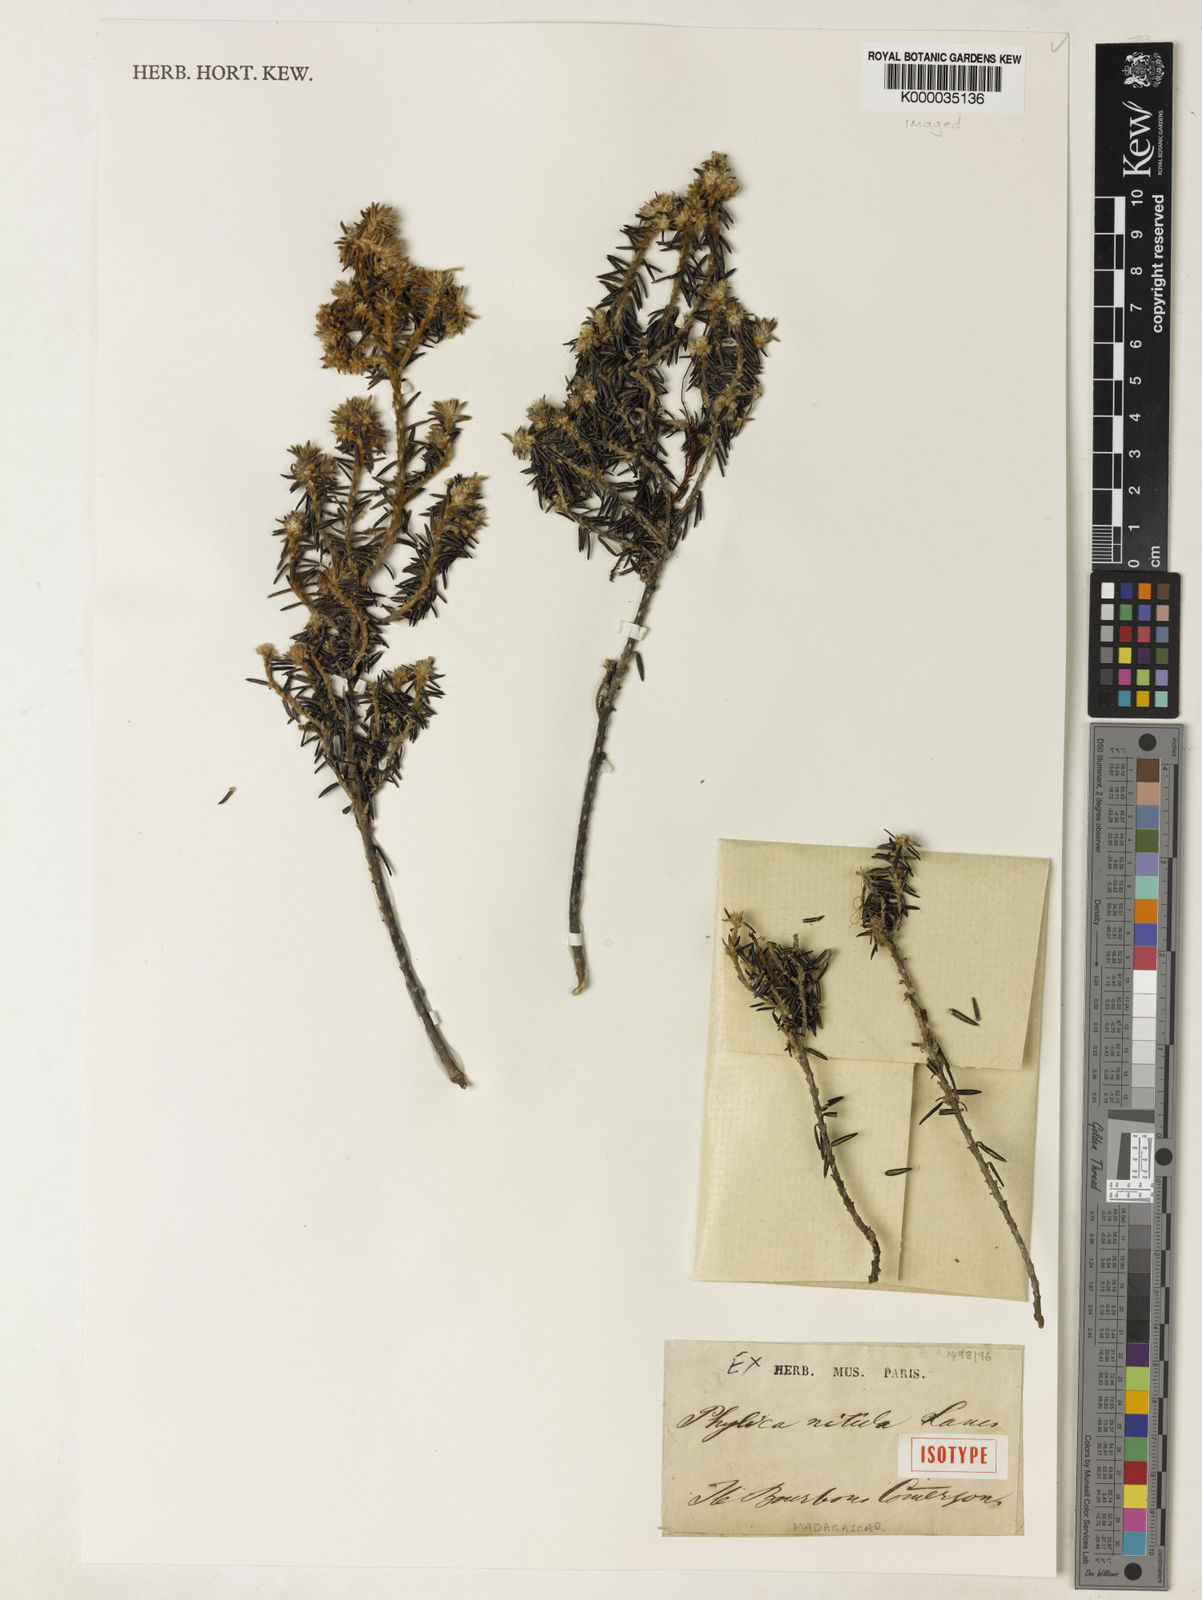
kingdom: Plantae
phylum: Tracheophyta
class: Magnoliopsida
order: Rosales
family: Rhamnaceae
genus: Phylica
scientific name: Phylica
